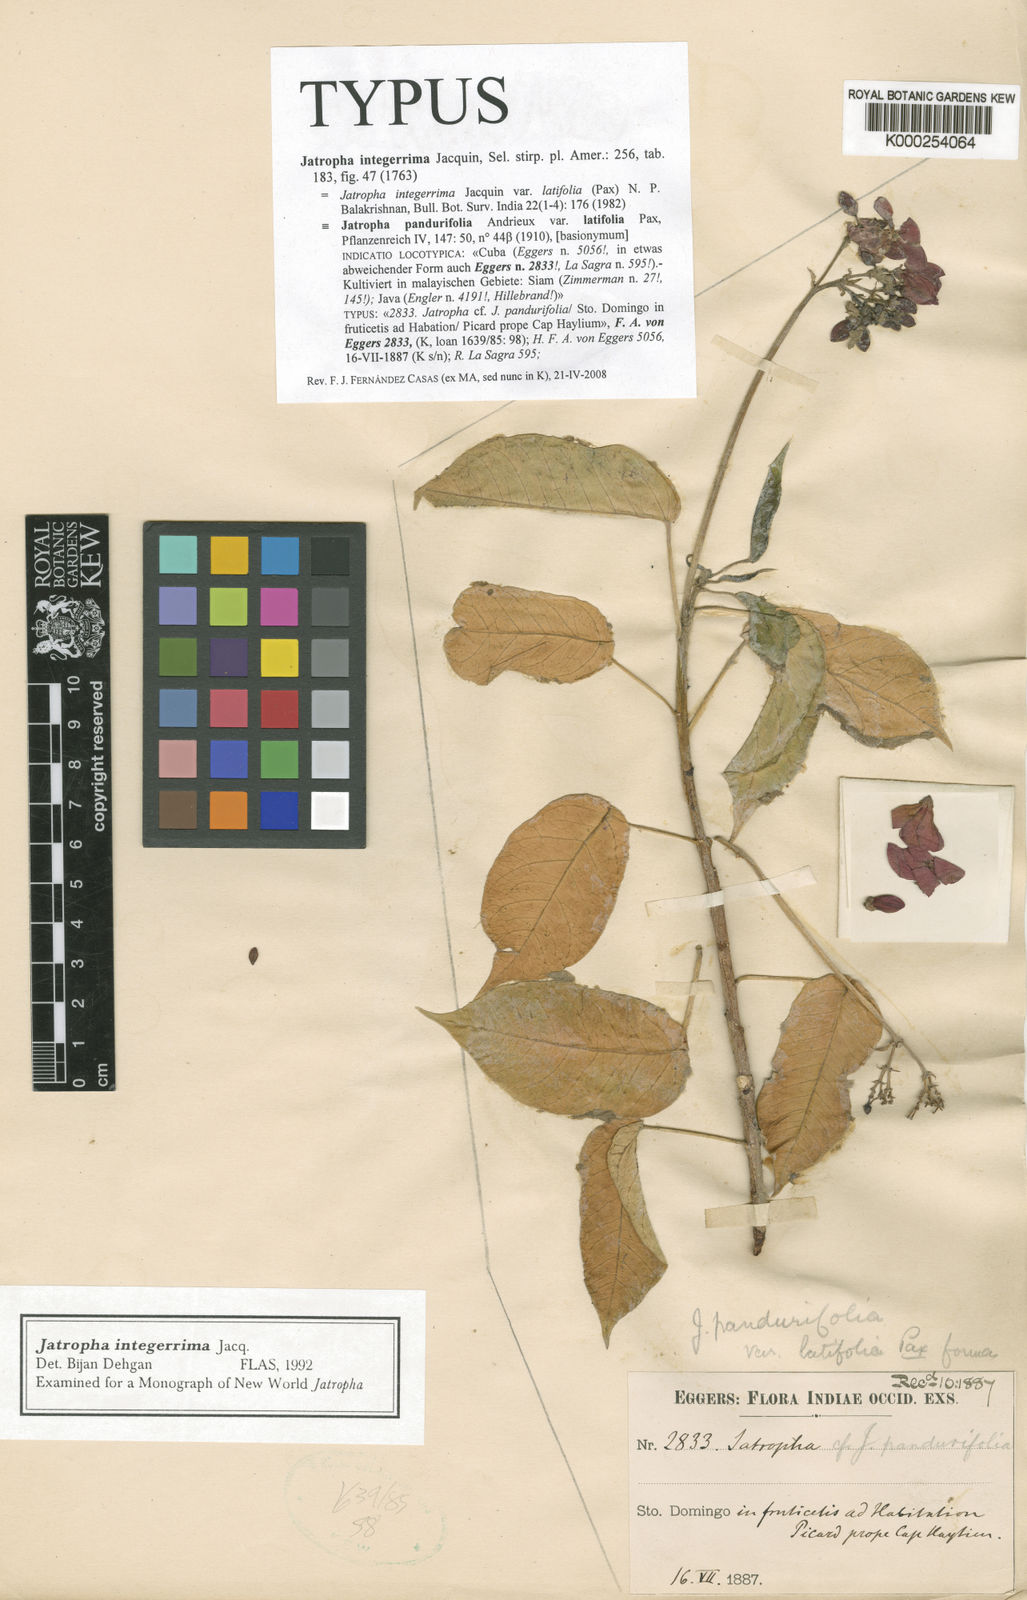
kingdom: Plantae
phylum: Tracheophyta
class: Magnoliopsida
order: Malpighiales
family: Euphorbiaceae
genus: Jatropha
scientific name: Jatropha integerrima
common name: Peregrina
